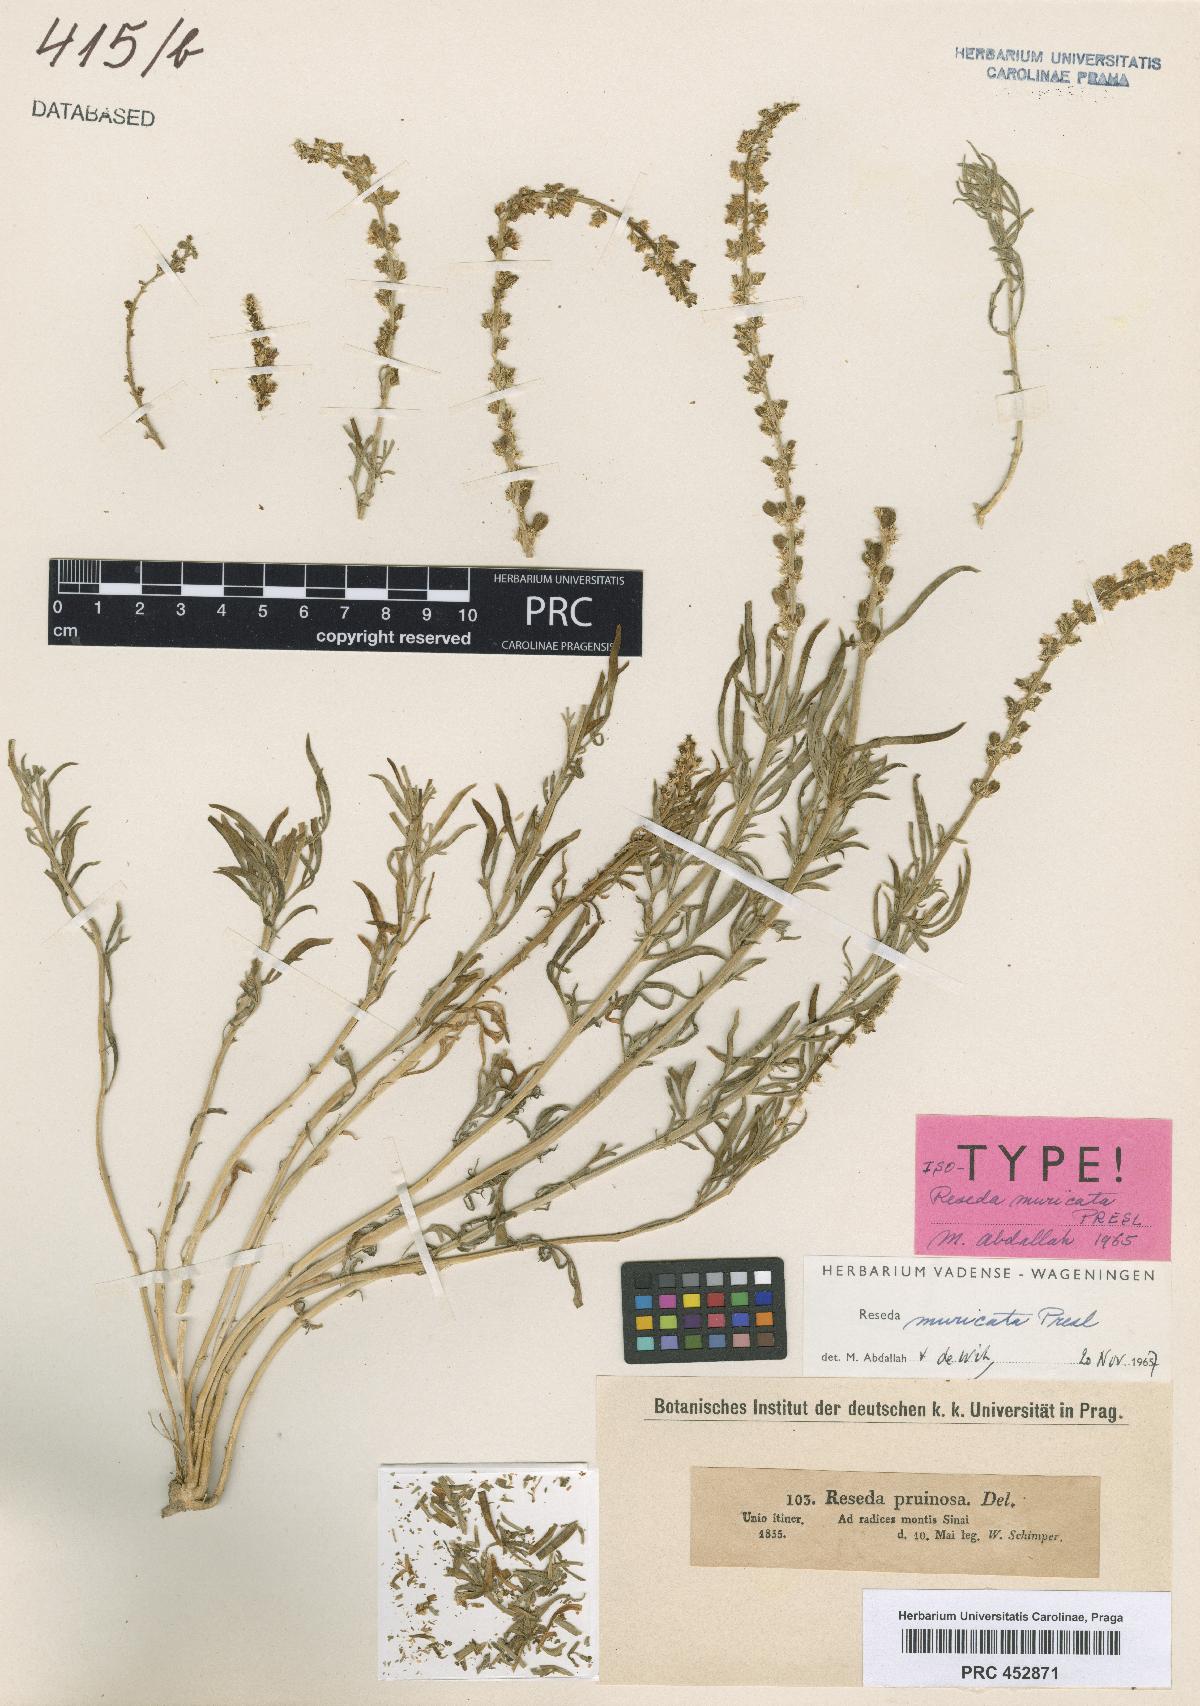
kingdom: Plantae
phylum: Tracheophyta
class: Magnoliopsida
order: Brassicales
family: Resedaceae
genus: Reseda
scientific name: Reseda muricata
